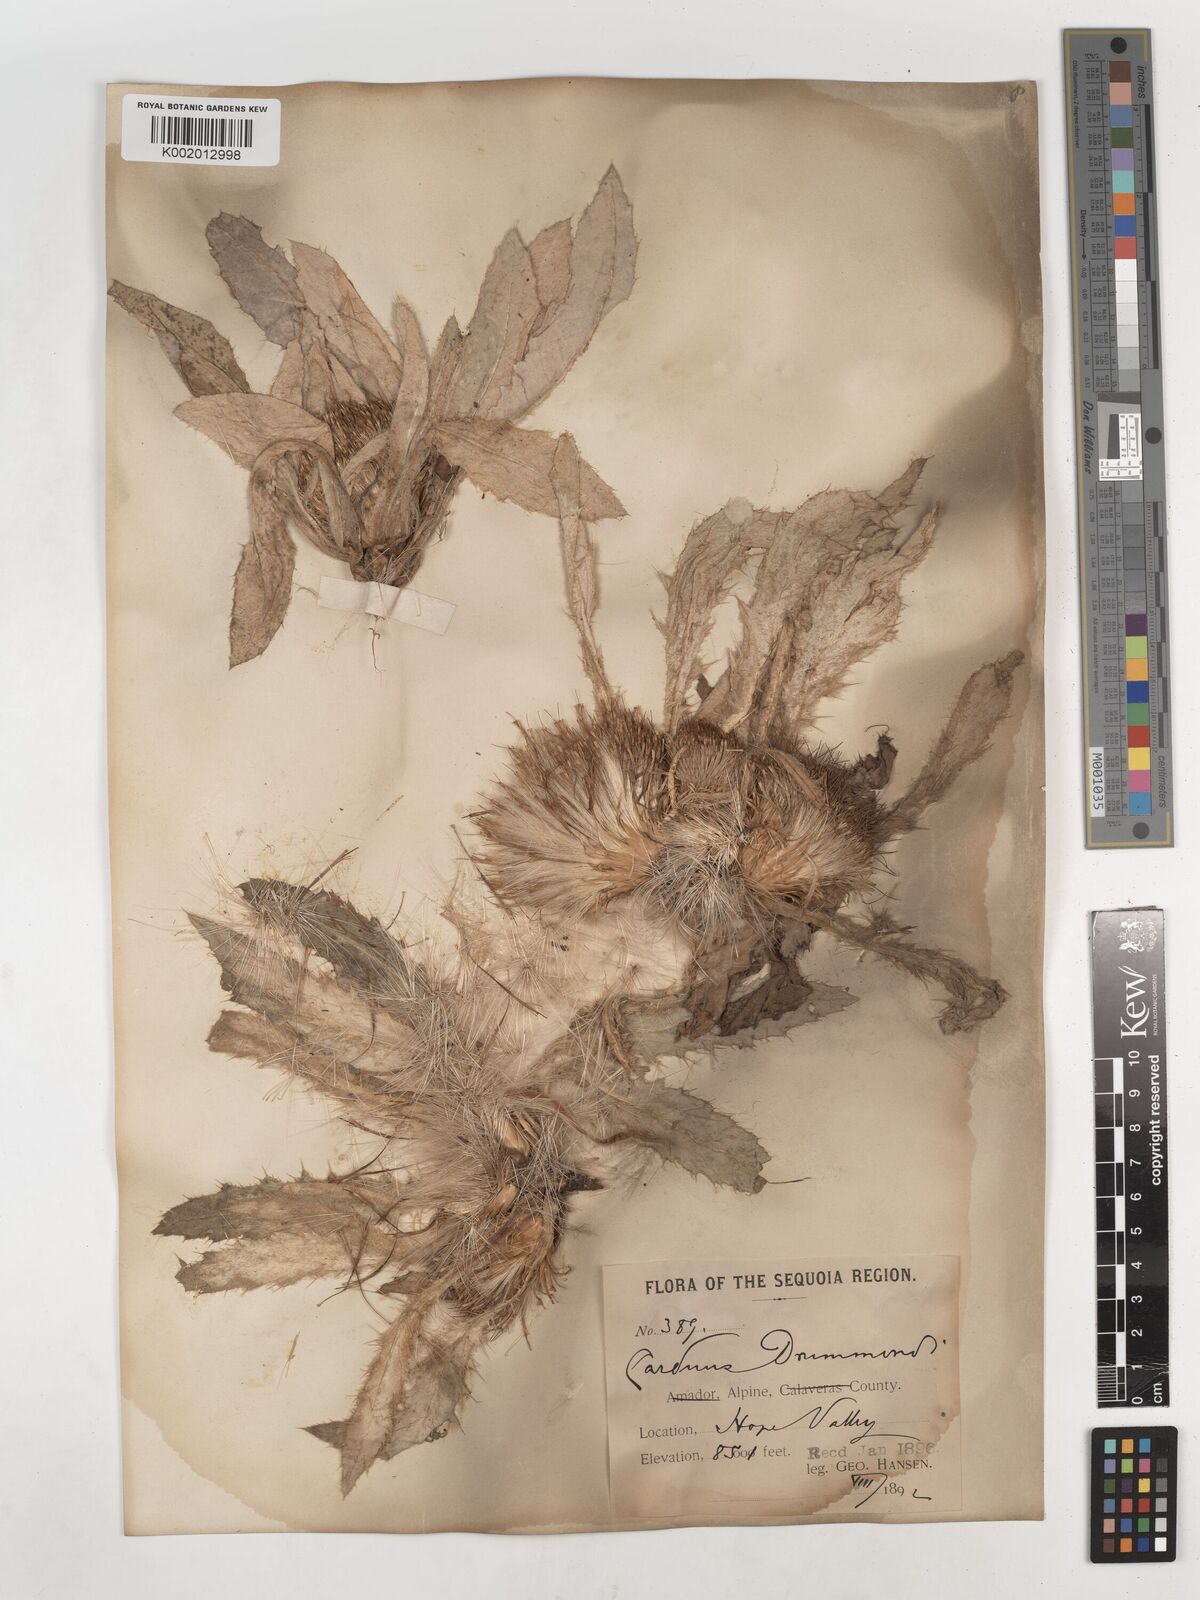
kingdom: Plantae
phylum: Tracheophyta
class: Magnoliopsida
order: Asterales
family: Asteraceae
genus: Cirsium
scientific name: Cirsium drummondii
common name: Drummond's thistle
